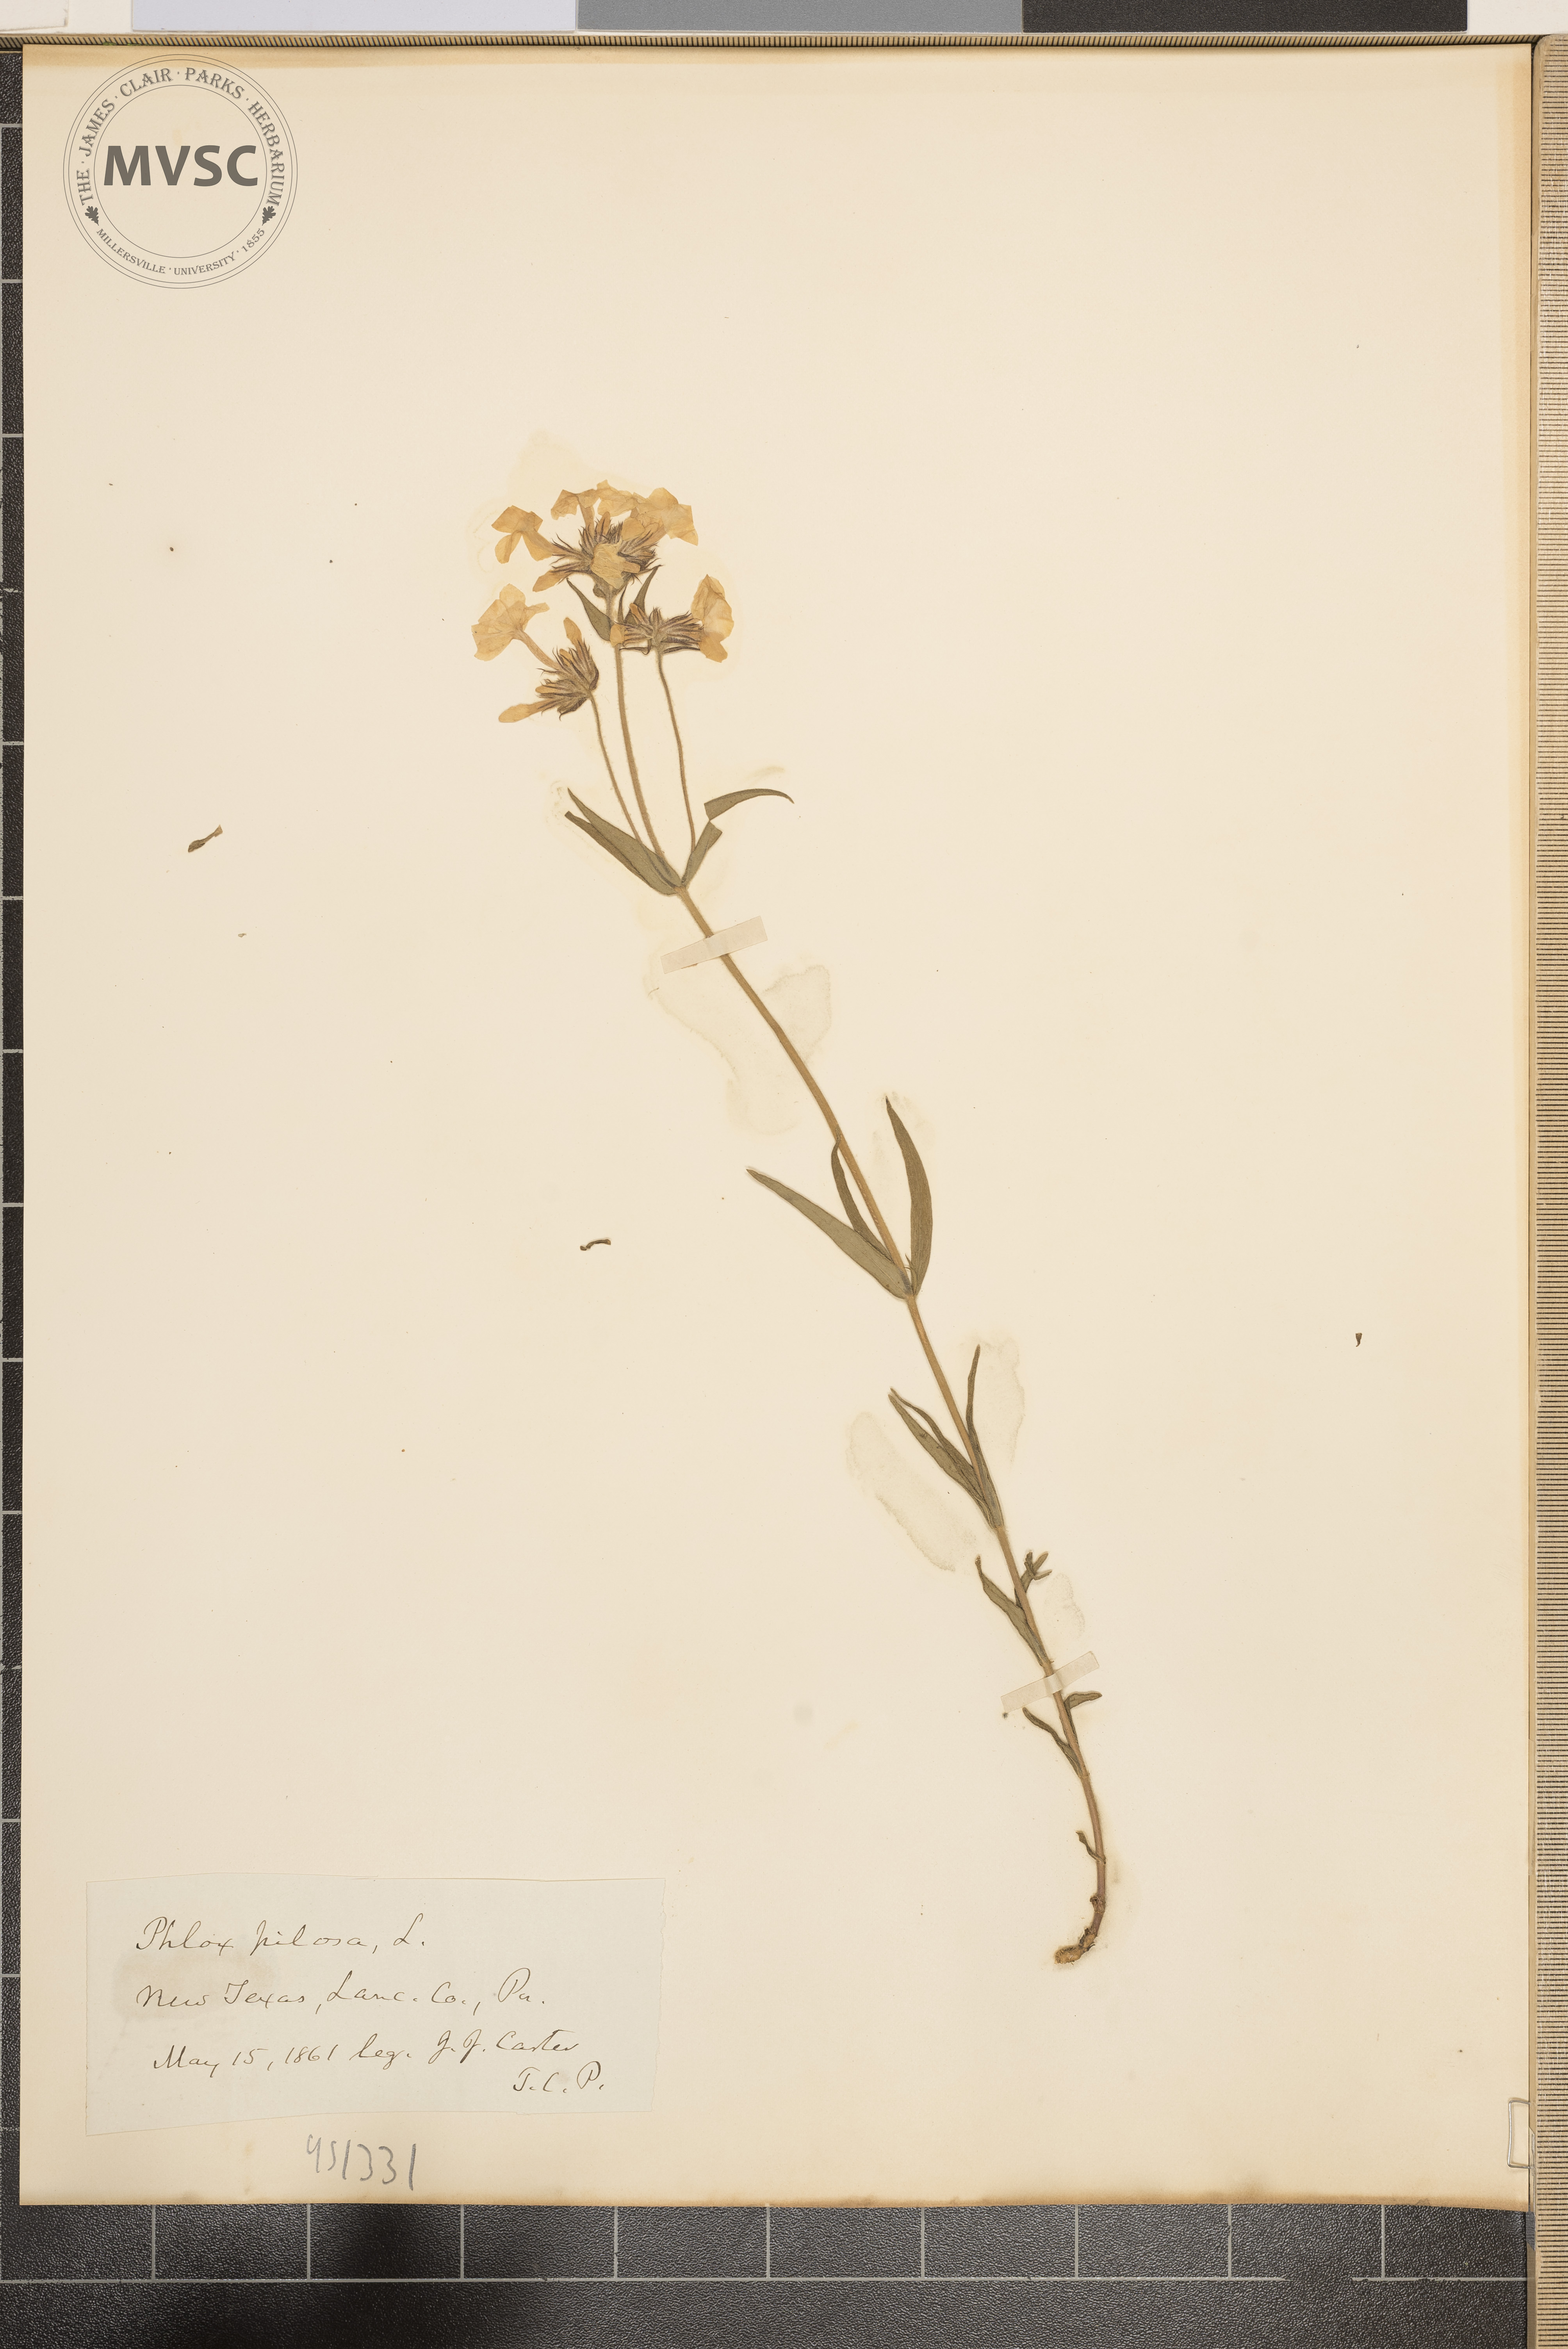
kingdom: Plantae
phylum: Tracheophyta
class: Magnoliopsida
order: Ericales
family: Polemoniaceae
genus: Phlox
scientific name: Phlox pilosa
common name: Prairie phlox
